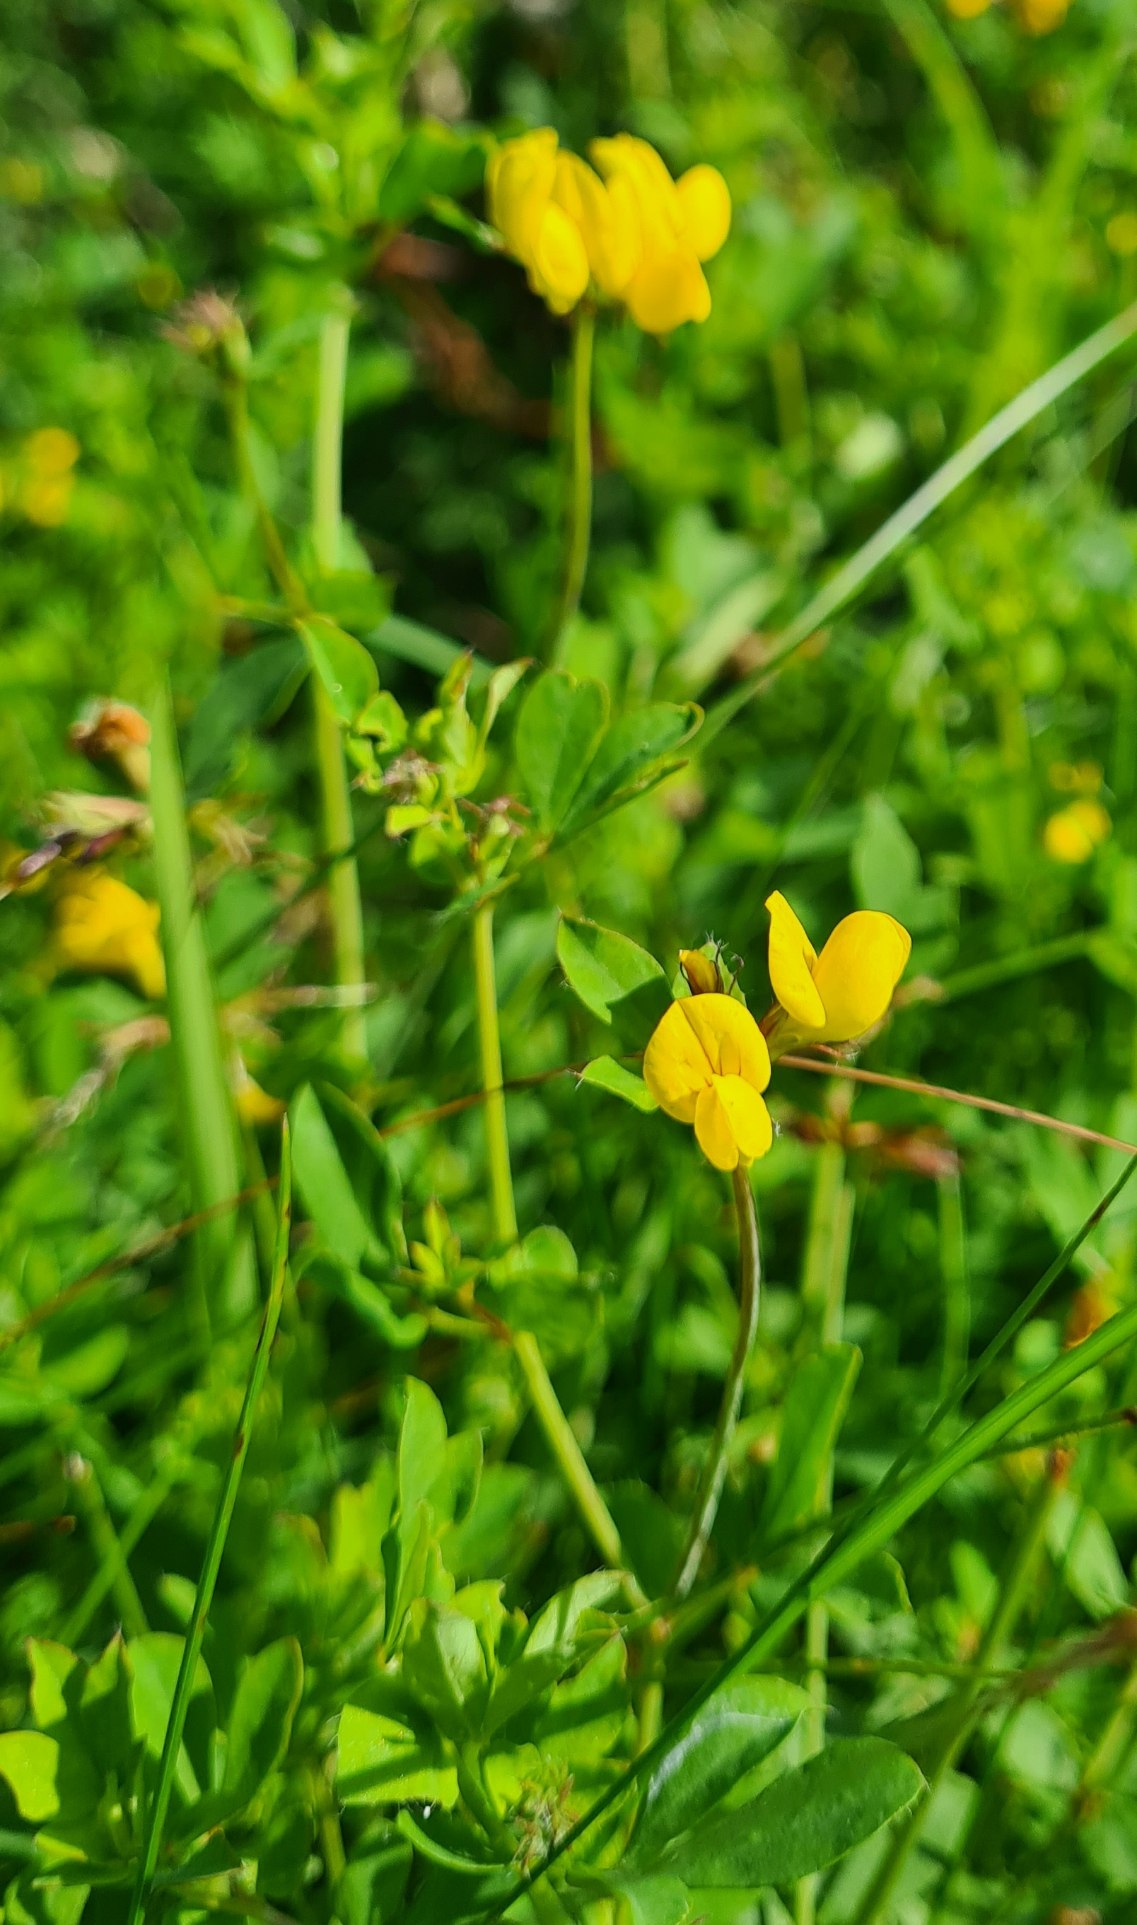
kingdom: Plantae
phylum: Tracheophyta
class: Magnoliopsida
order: Fabales
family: Fabaceae
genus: Lotus
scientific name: Lotus corniculatus
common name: Almindelig kællingetand
